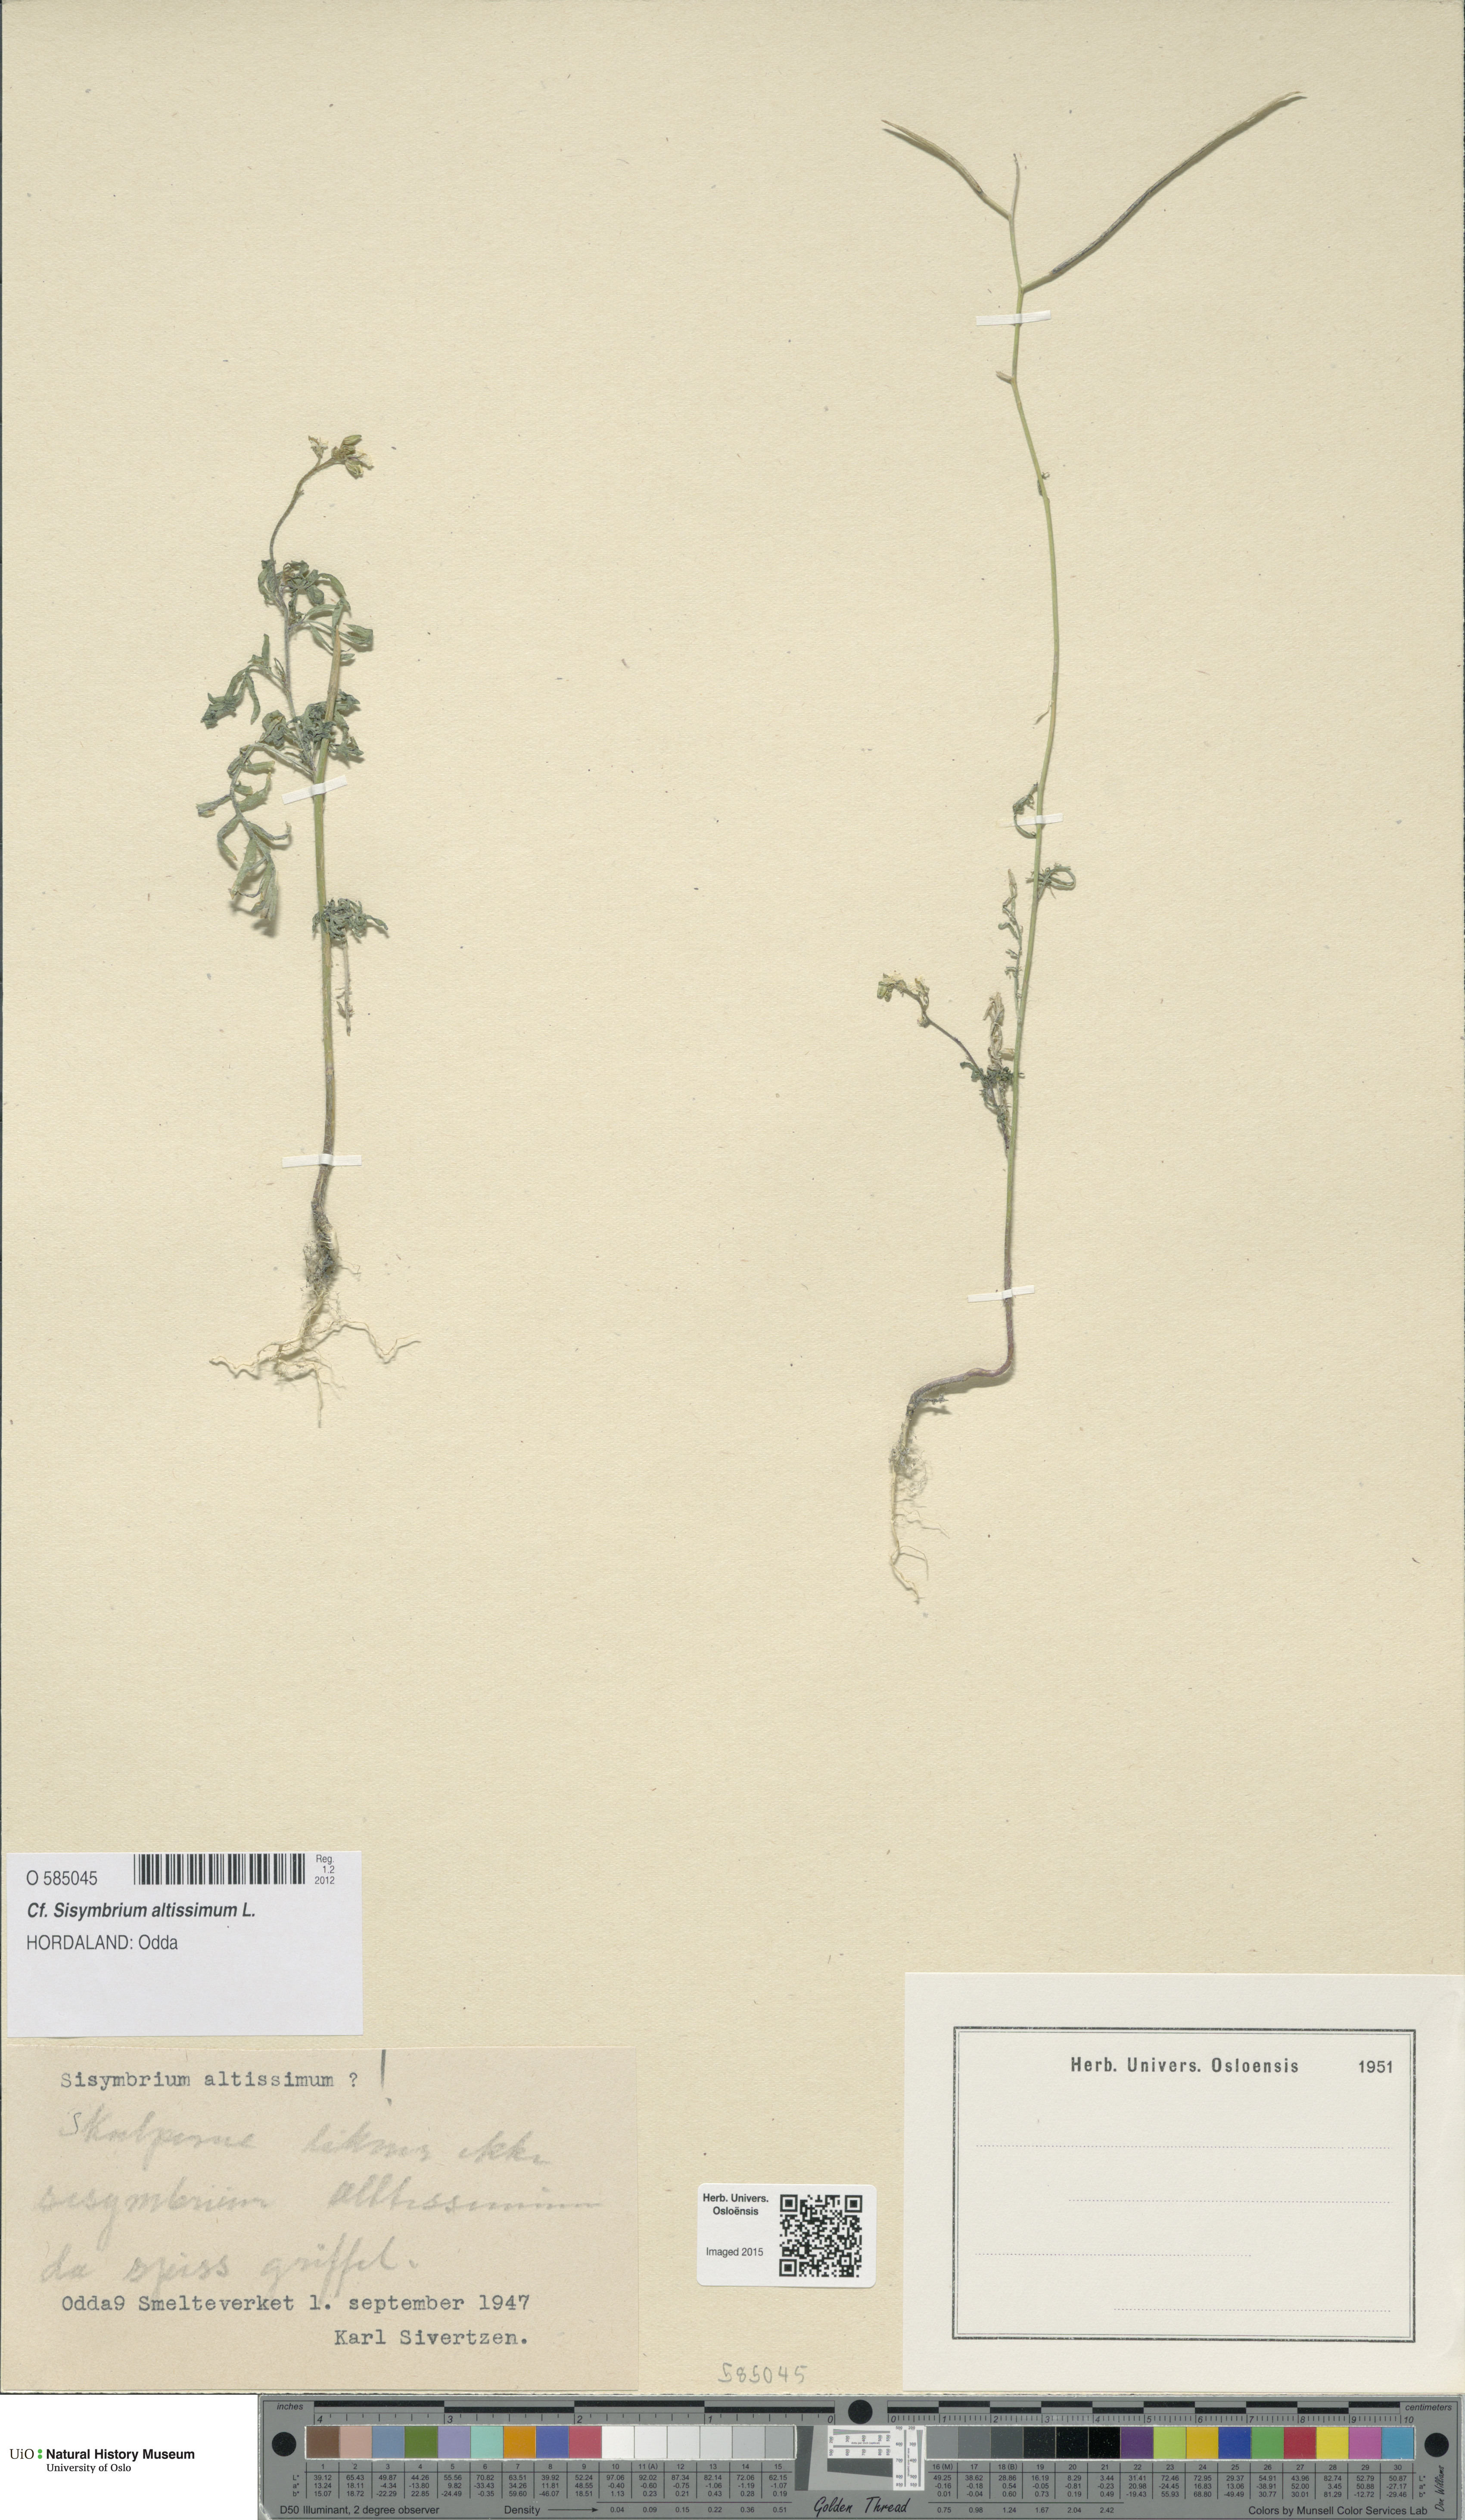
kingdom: Plantae
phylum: Tracheophyta
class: Magnoliopsida
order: Brassicales
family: Brassicaceae
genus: Sisymbrium
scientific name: Sisymbrium altissimum
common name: Tall rocket
